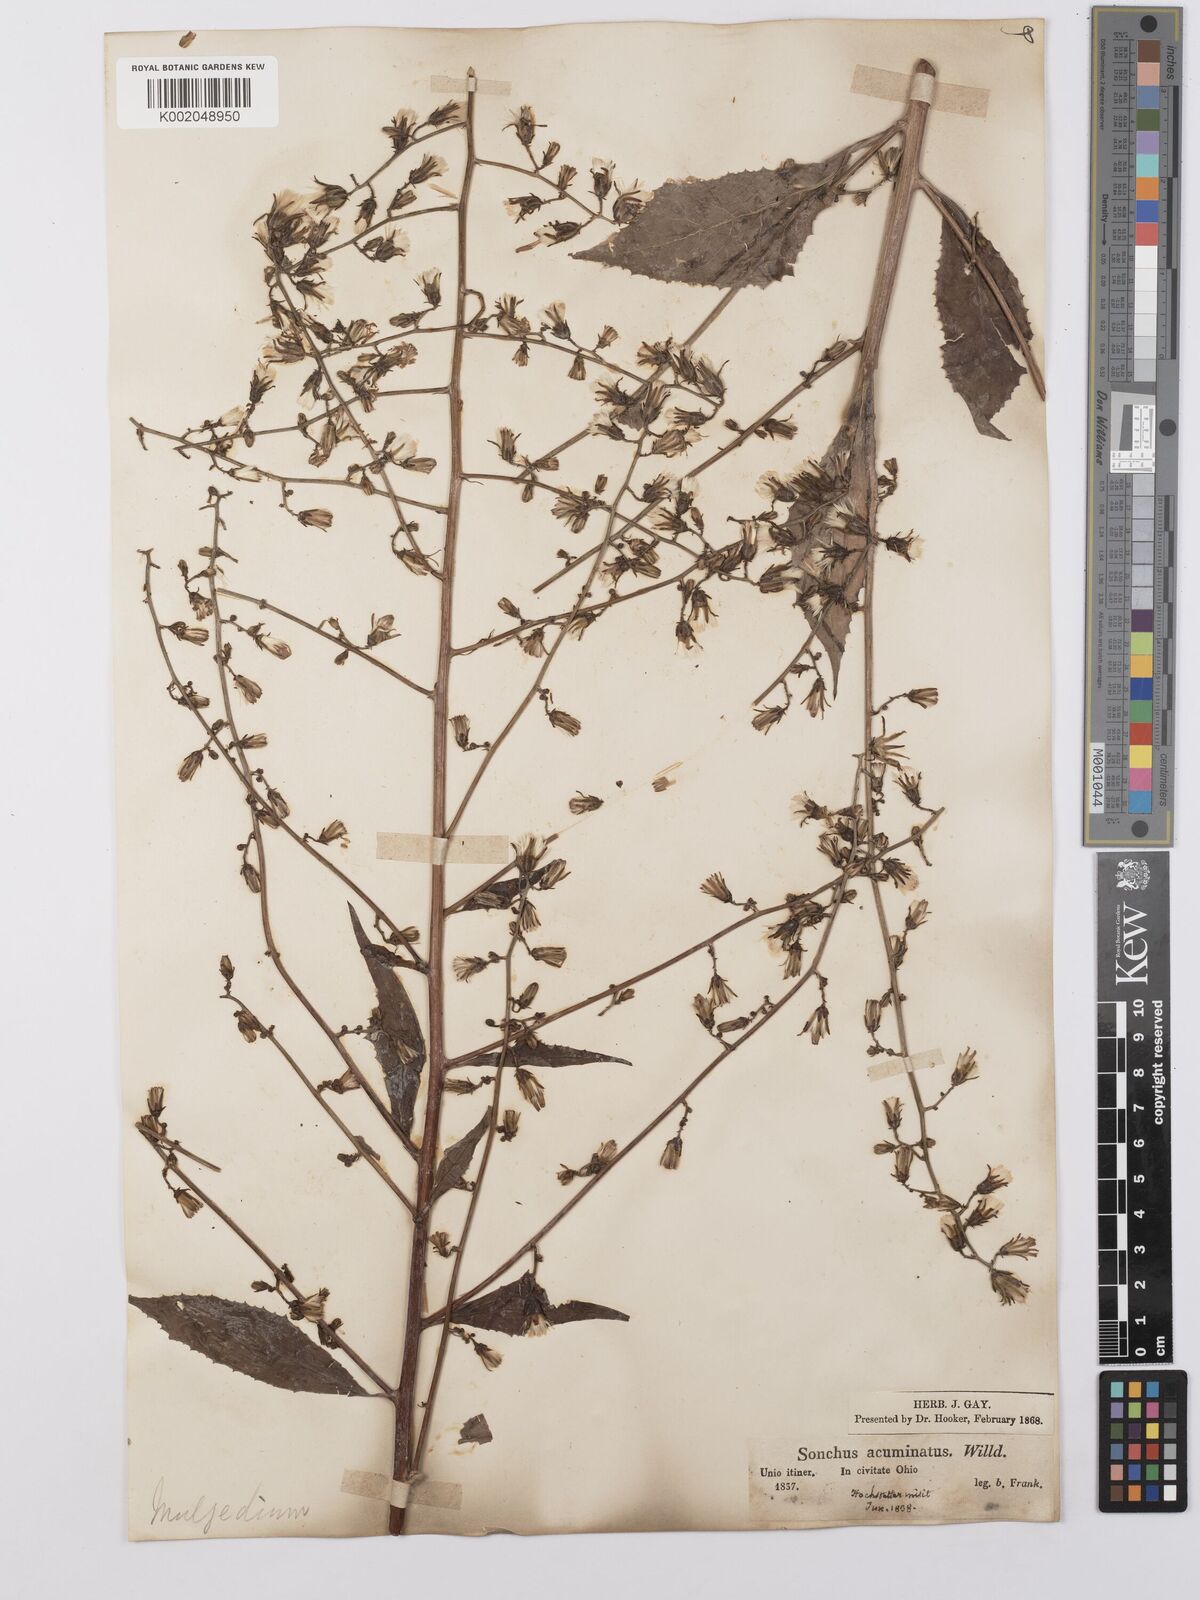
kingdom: Plantae
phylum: Tracheophyta
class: Magnoliopsida
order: Asterales
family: Asteraceae
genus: Lactuca
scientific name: Lactuca
